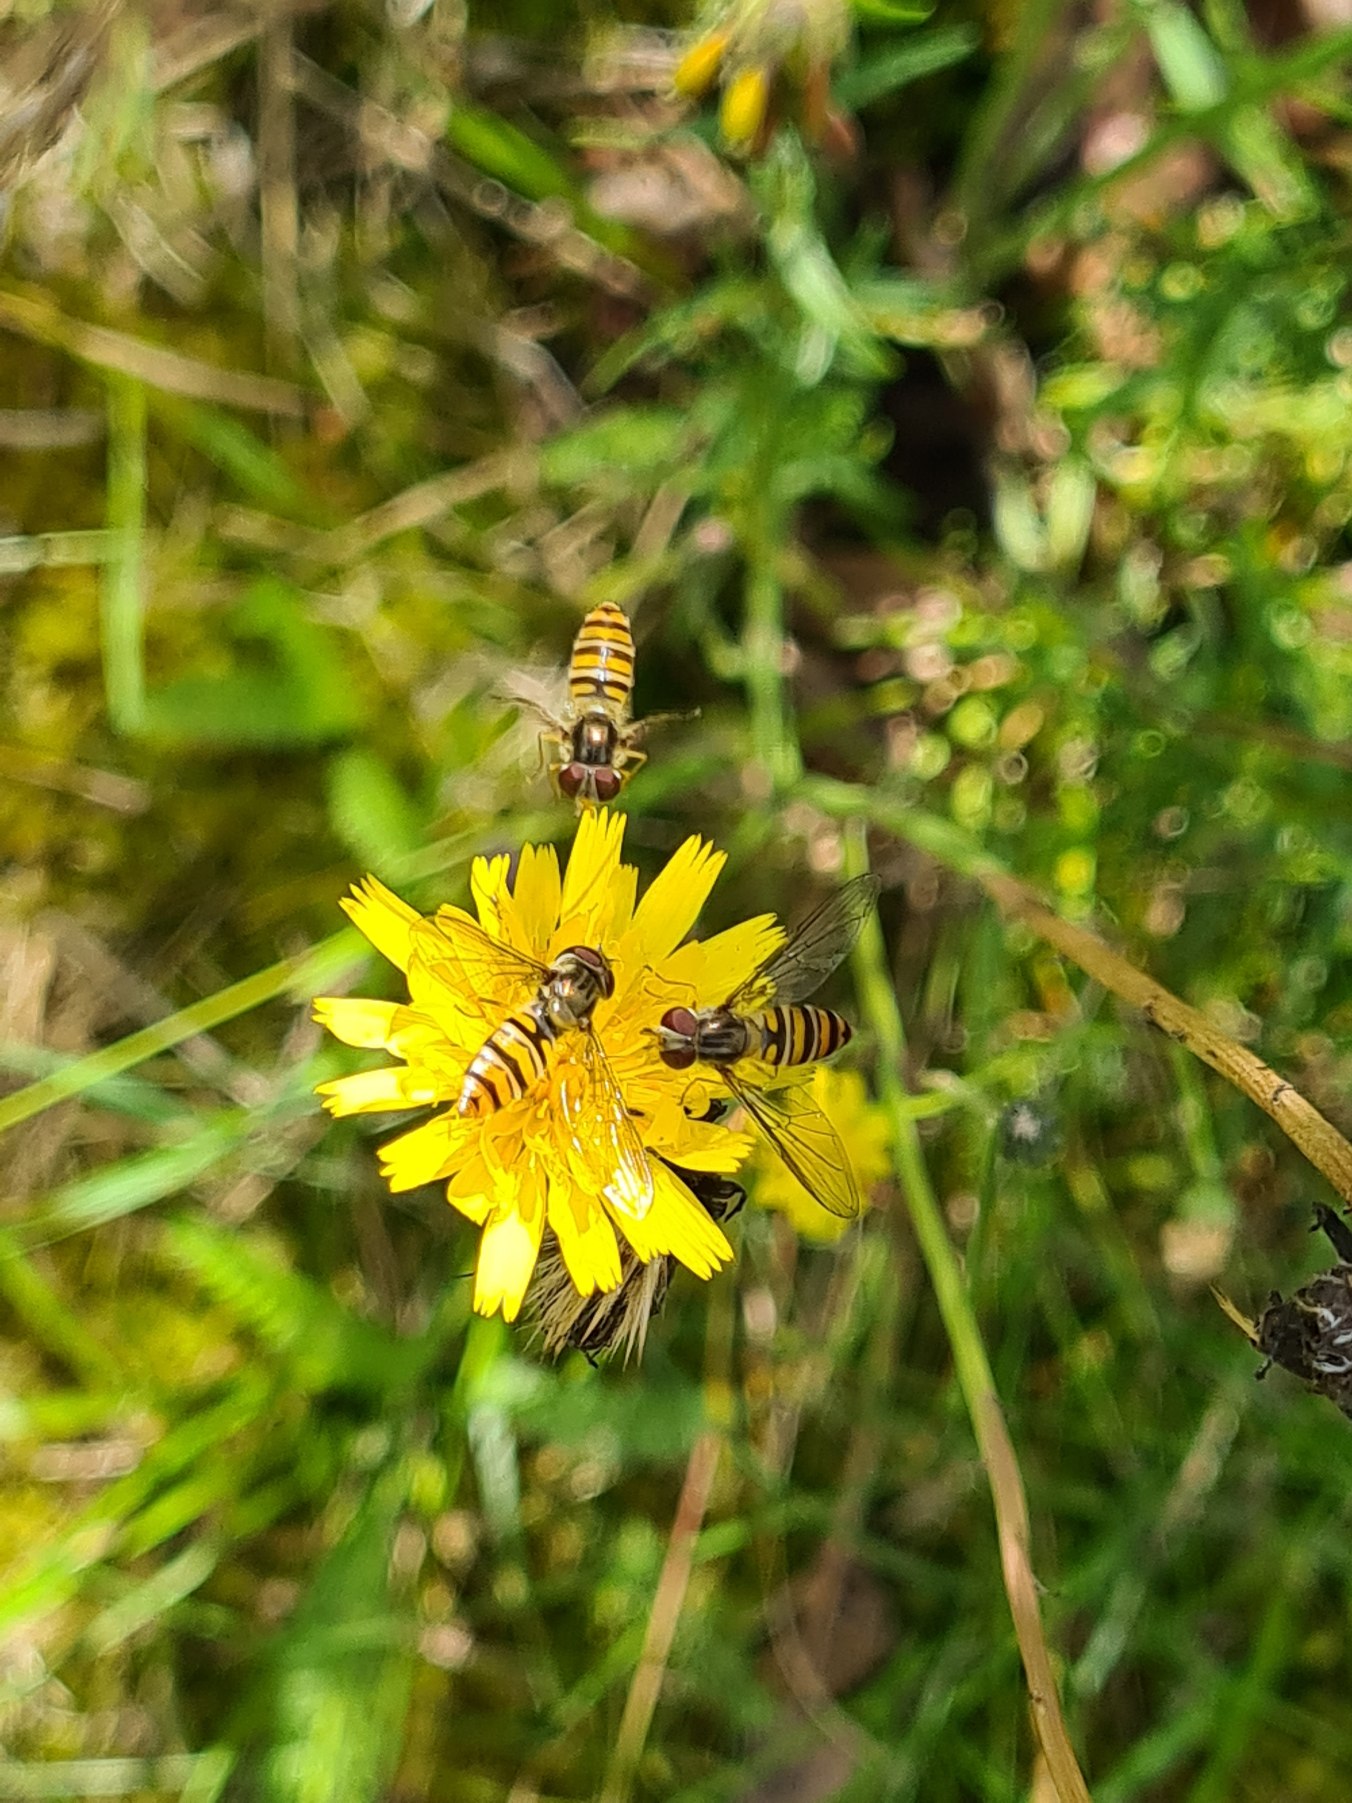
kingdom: Animalia
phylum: Arthropoda
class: Insecta
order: Diptera
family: Syrphidae
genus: Episyrphus
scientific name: Episyrphus balteatus
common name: Dobbeltbåndet svirreflue
